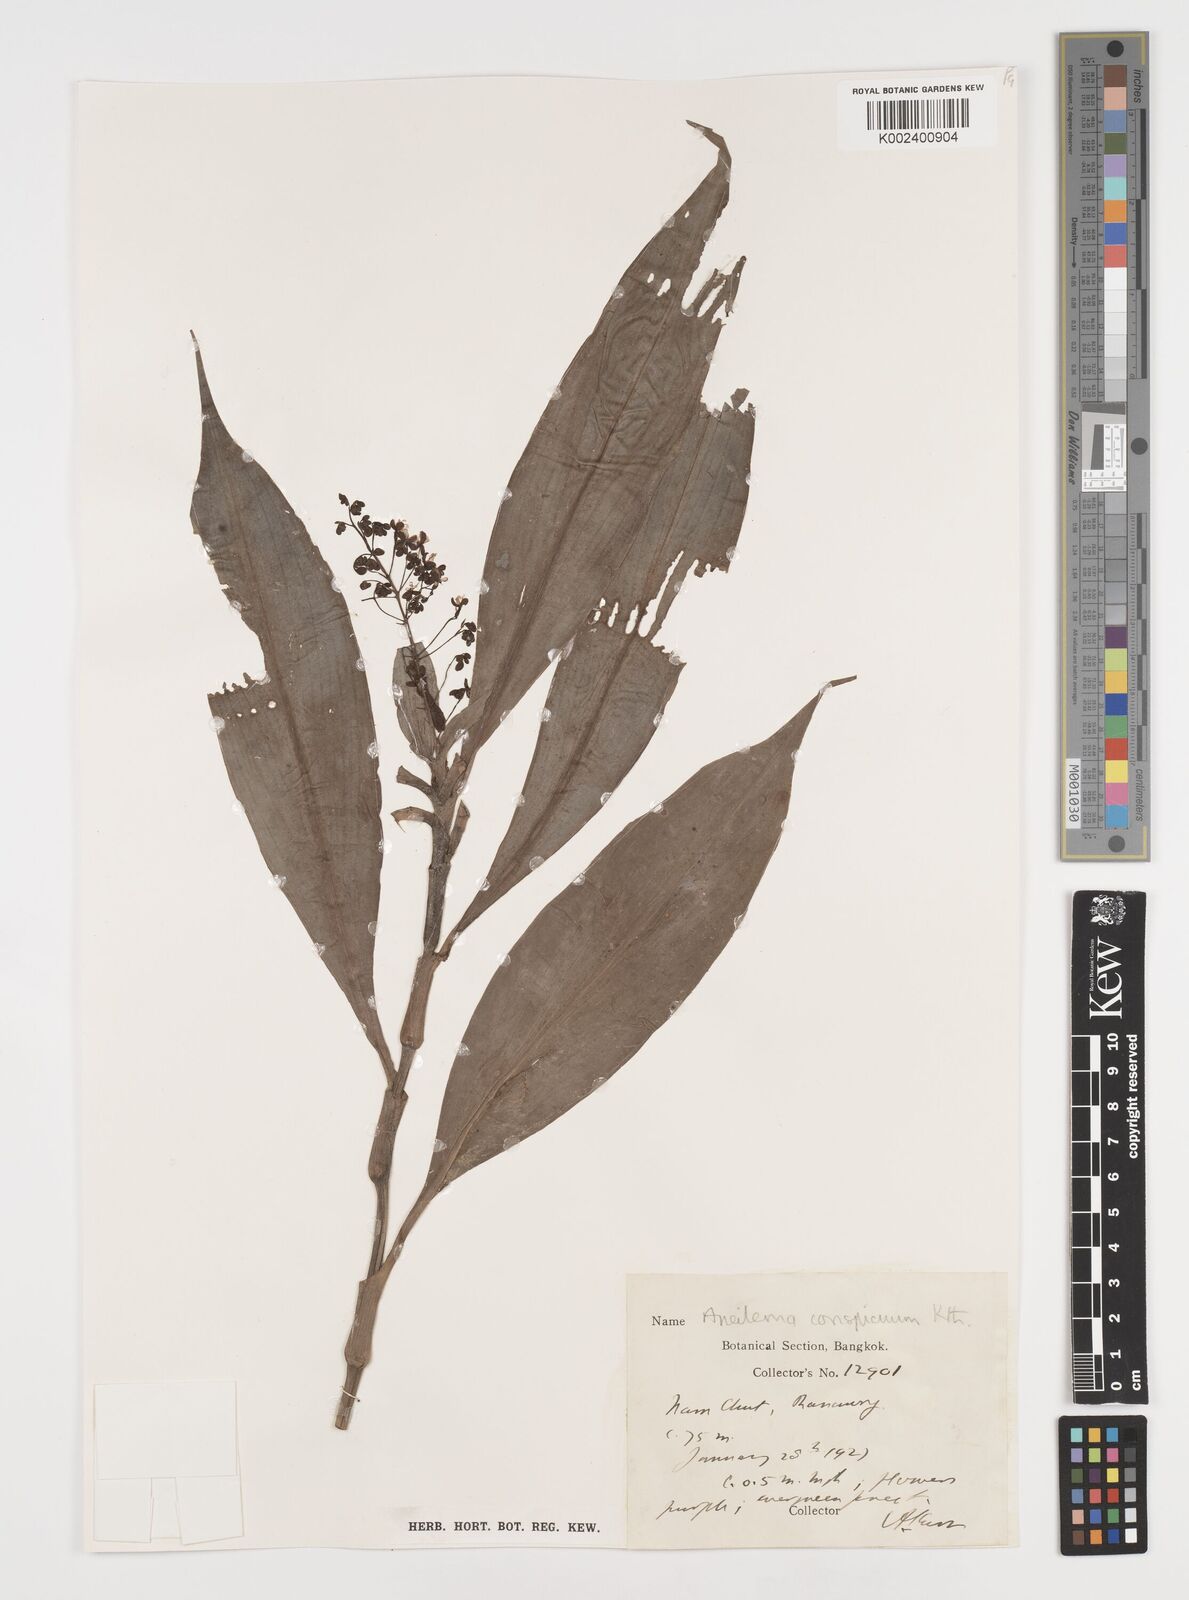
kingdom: Plantae
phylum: Tracheophyta
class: Liliopsida
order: Commelinales
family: Commelinaceae
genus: Dictyospermum
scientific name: Dictyospermum conspicuum
